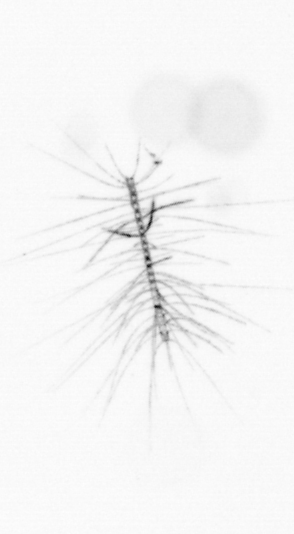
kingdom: Chromista
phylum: Ochrophyta
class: Bacillariophyceae
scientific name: Bacillariophyceae
